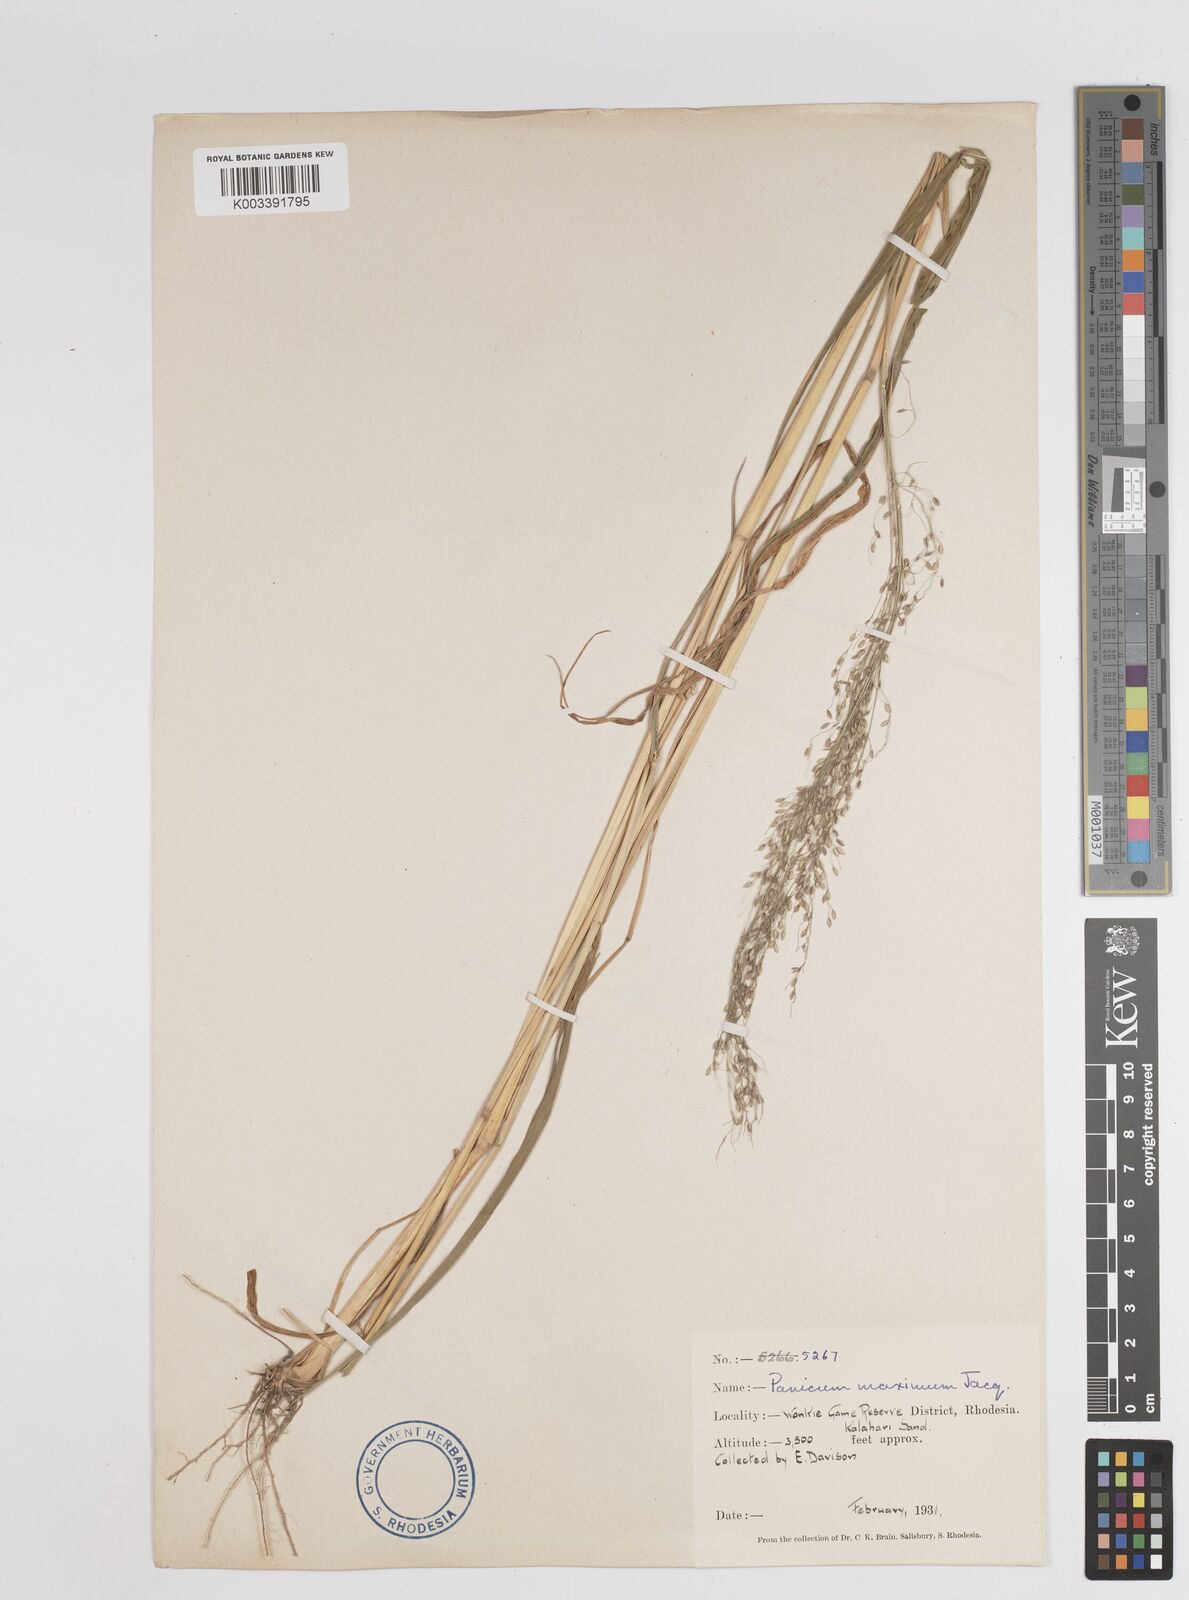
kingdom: Plantae
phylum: Tracheophyta
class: Liliopsida
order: Poales
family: Poaceae
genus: Megathyrsus
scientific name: Megathyrsus maximus
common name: Guineagrass
